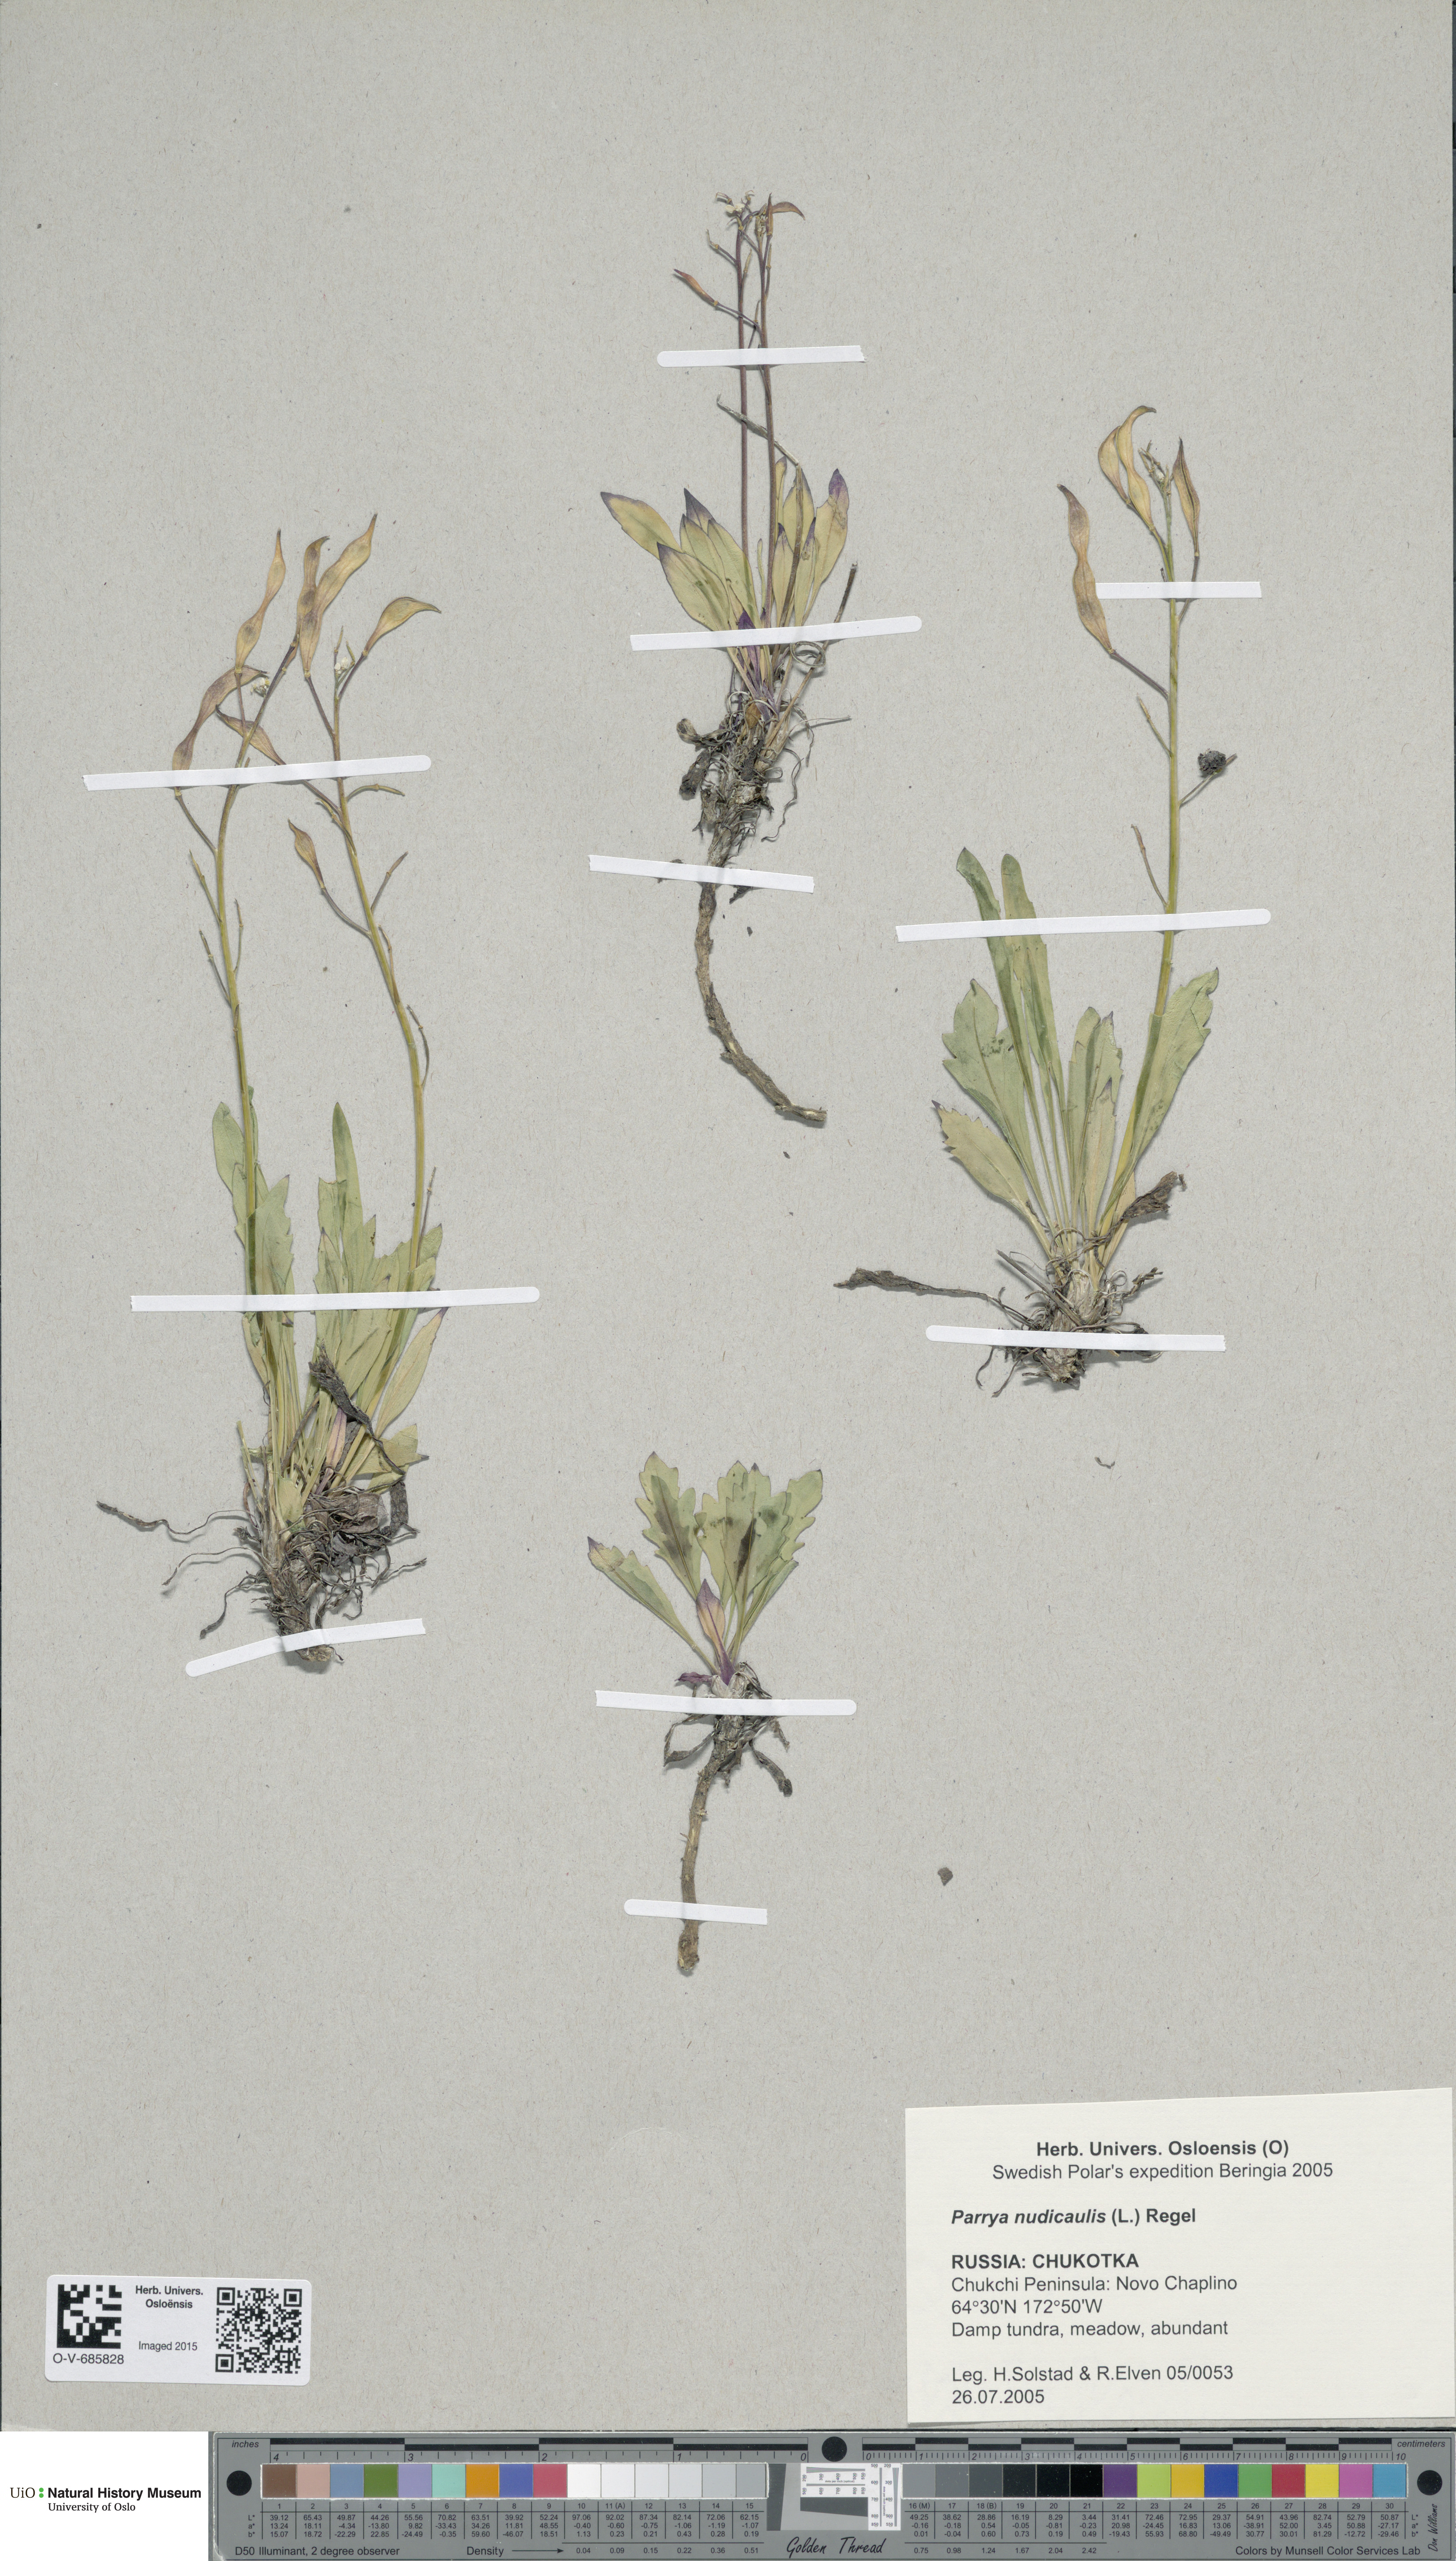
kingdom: Plantae
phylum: Tracheophyta
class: Magnoliopsida
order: Brassicales
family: Brassicaceae
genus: Parrya
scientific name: Parrya nudicaulis
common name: Naked-stemmed false wallflower
